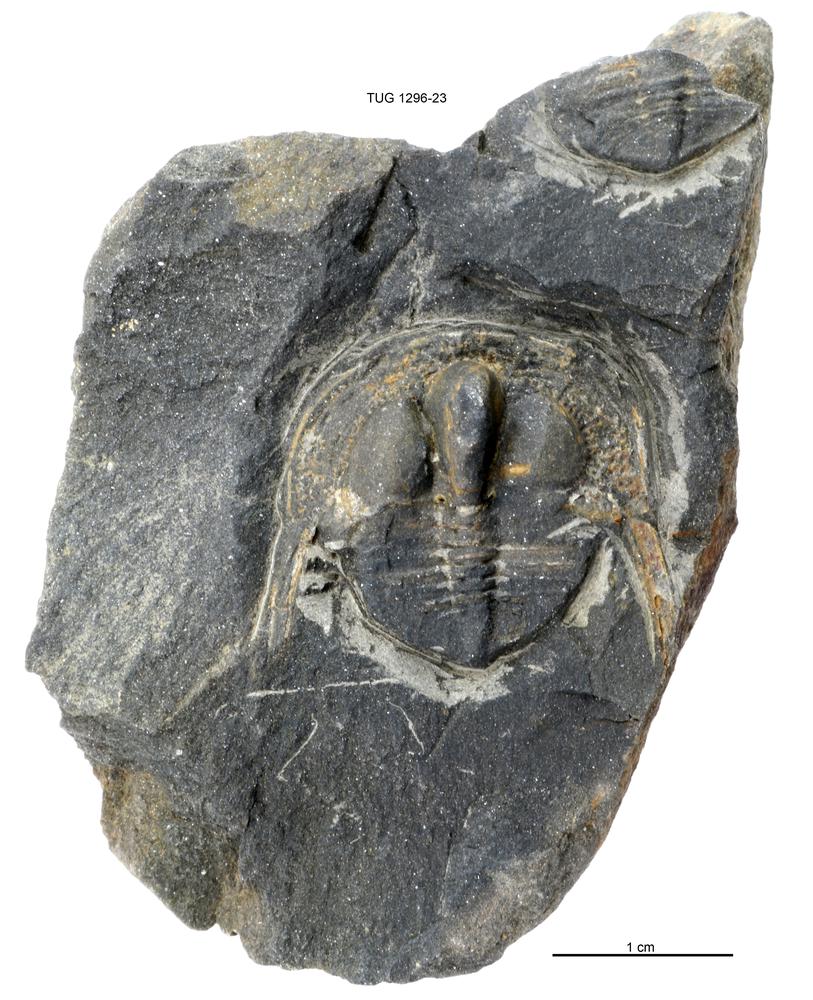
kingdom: Animalia
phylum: Arthropoda
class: Trilobita
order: Asaphida
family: Trinucleidae
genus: Deanaspis
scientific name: Deanaspis
